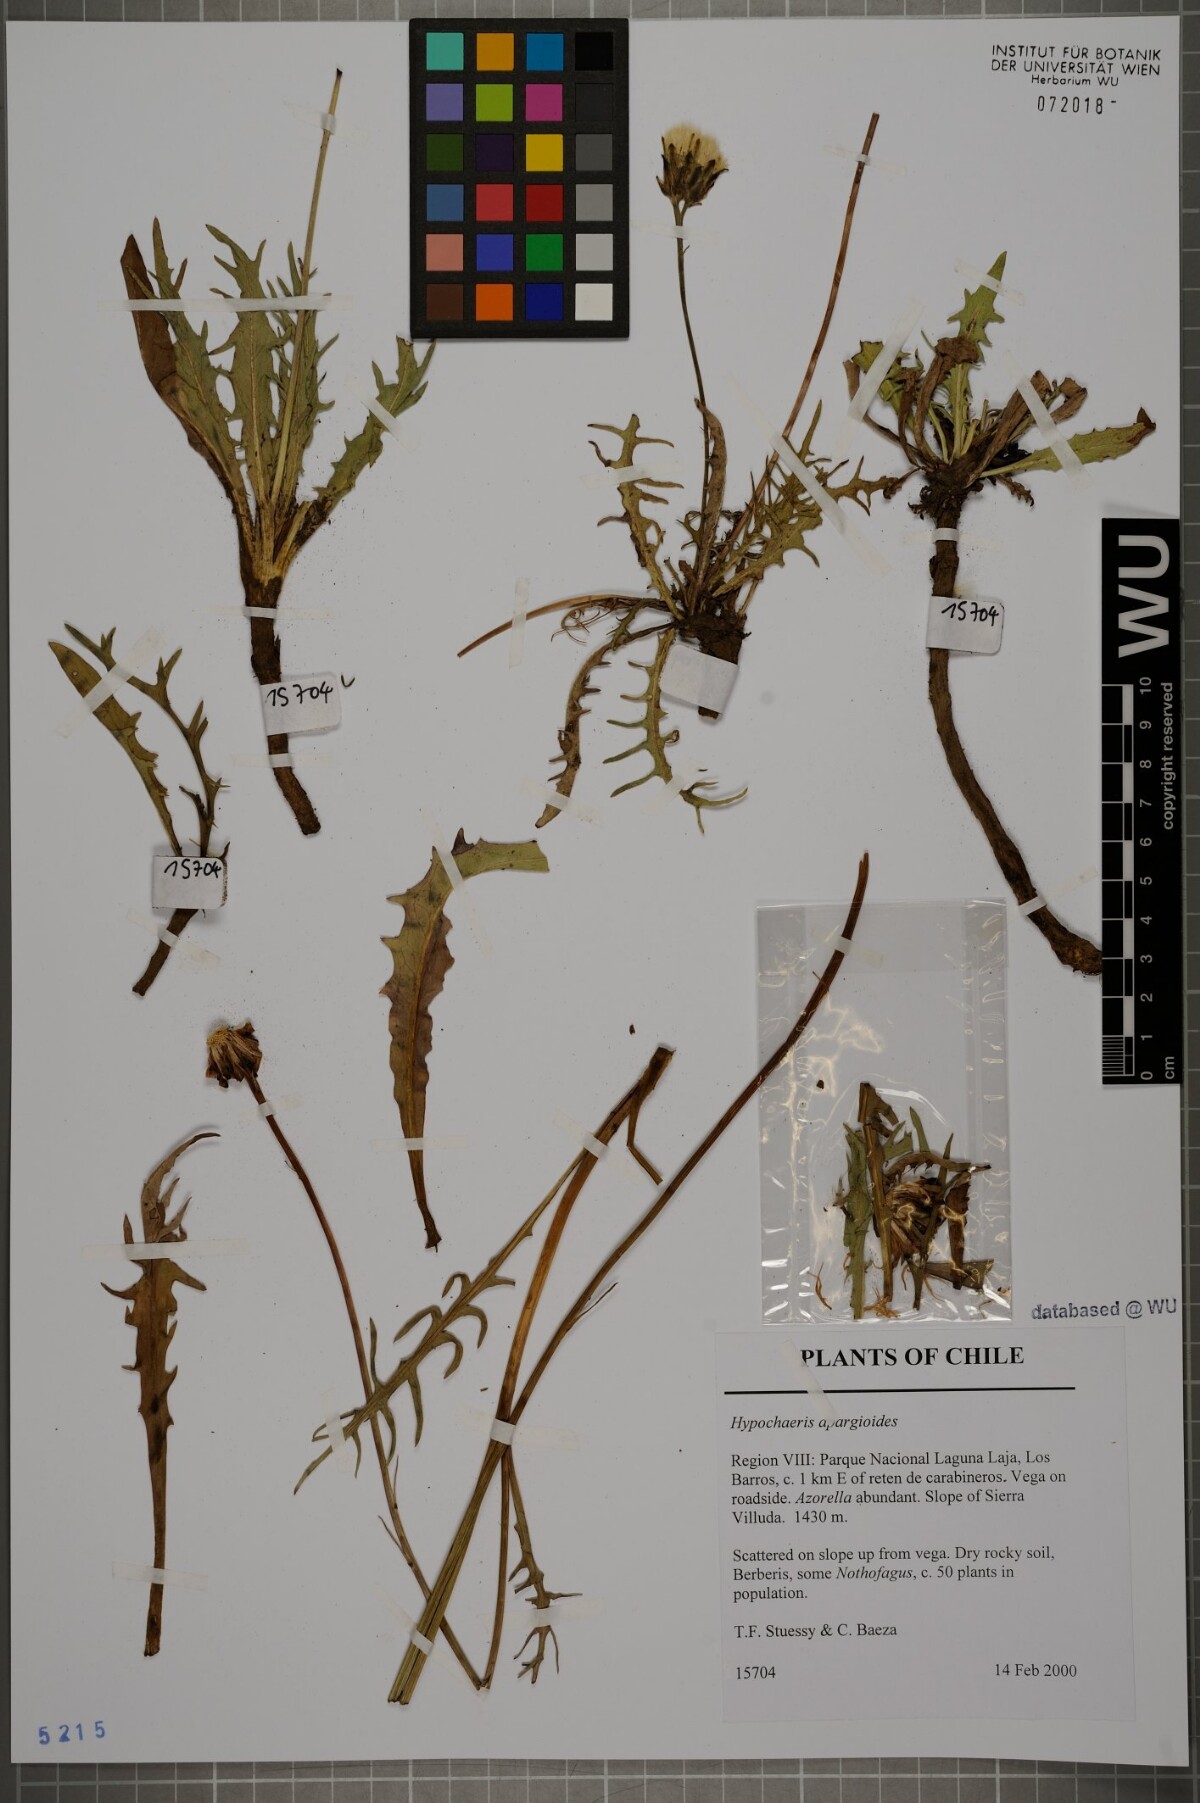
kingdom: Plantae
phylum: Tracheophyta
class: Magnoliopsida
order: Asterales
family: Asteraceae
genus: Hypochaeris
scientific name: Hypochaeris apargioides
